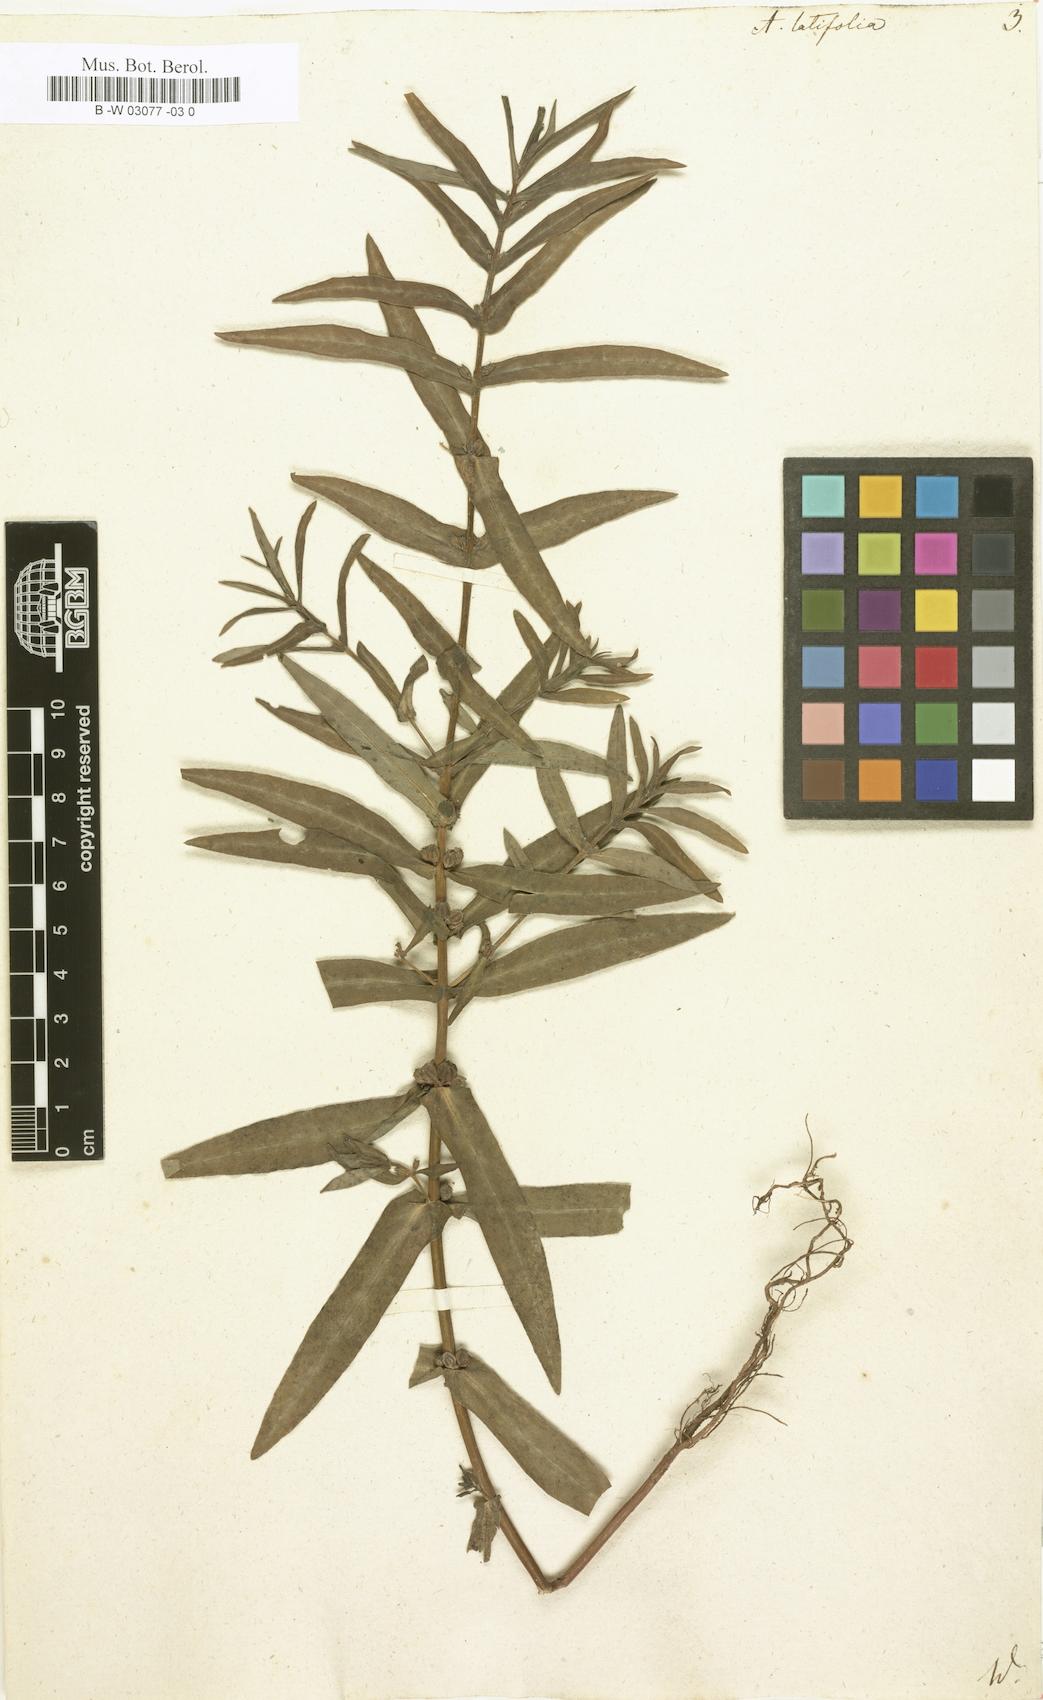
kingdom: Plantae
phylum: Tracheophyta
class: Magnoliopsida
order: Myrtales
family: Lythraceae
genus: Ammannia
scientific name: Ammannia latifolia
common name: Toothcup
